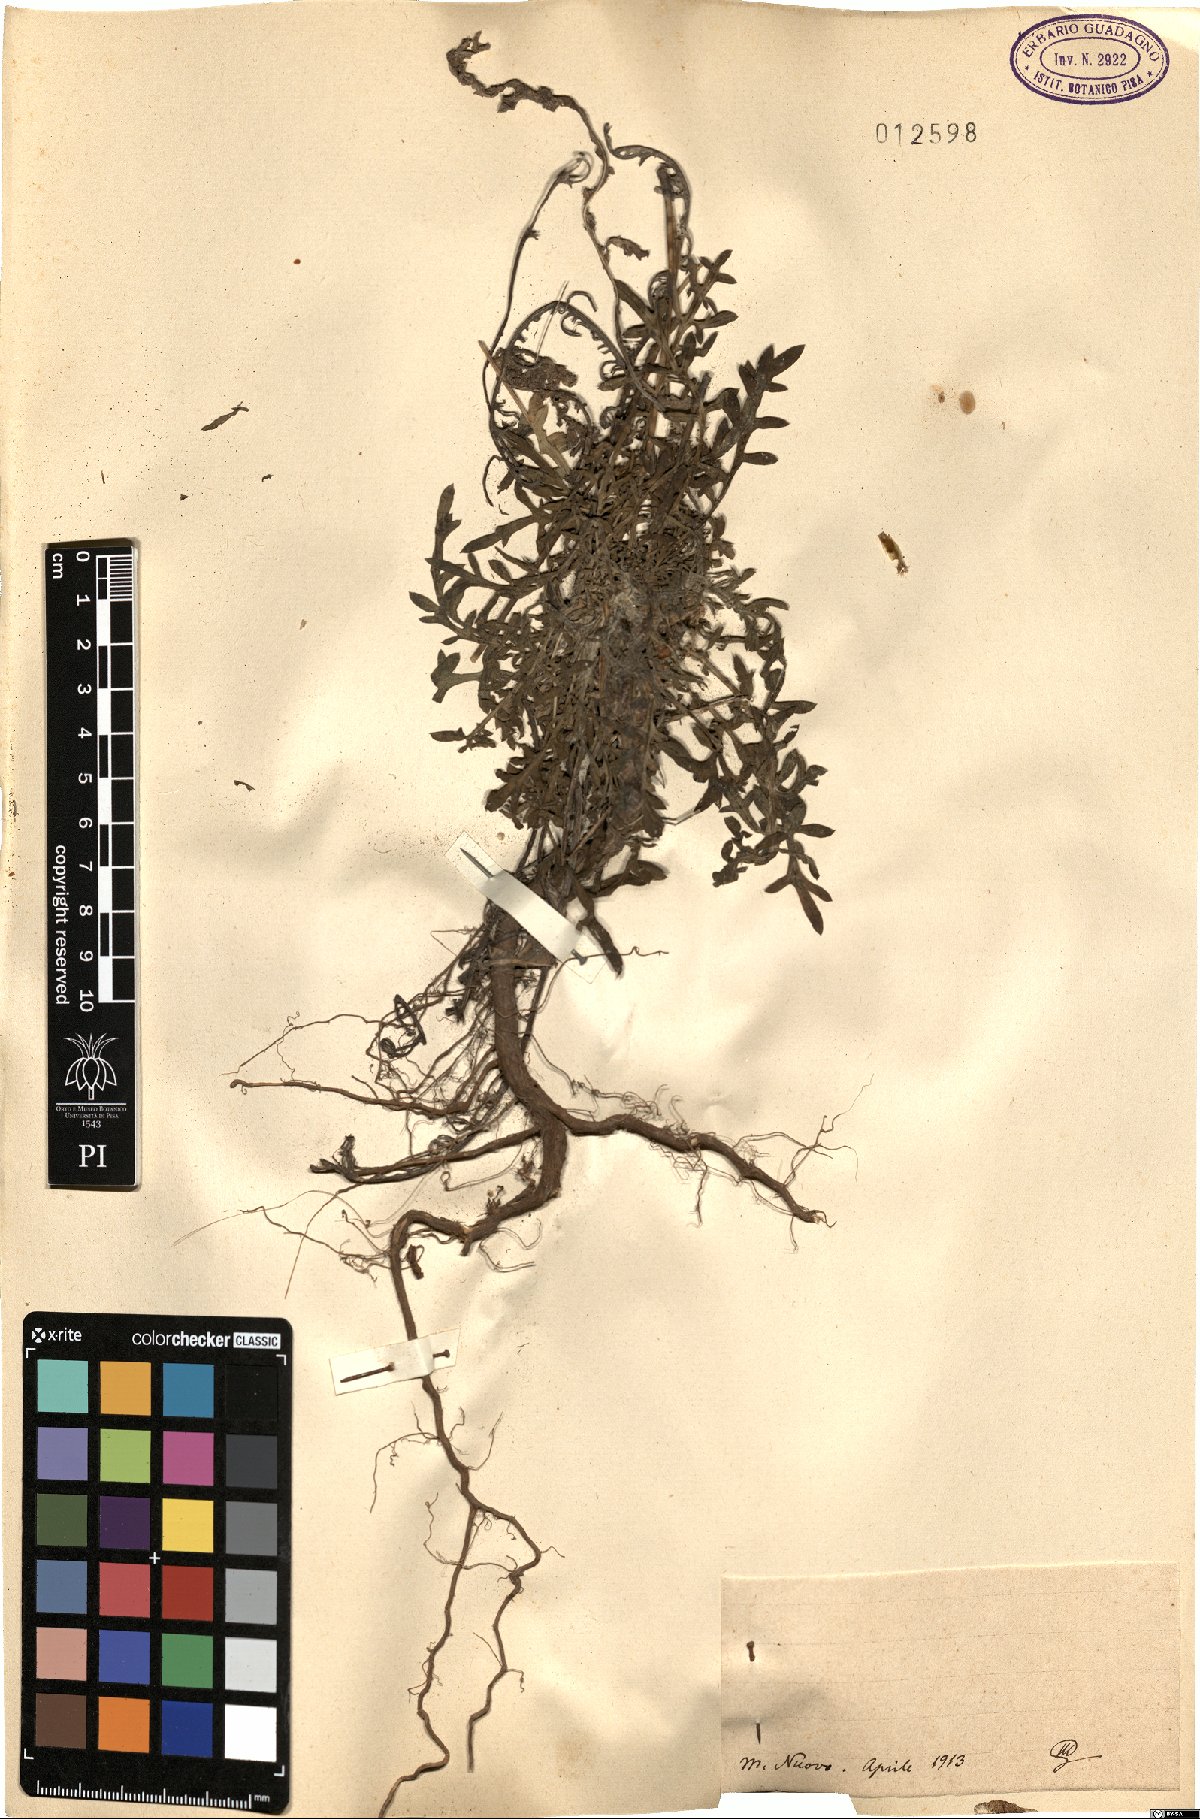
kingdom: Plantae
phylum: Tracheophyta
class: Magnoliopsida
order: Asterales
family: Asteraceae
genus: Centaurea
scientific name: Centaurea
